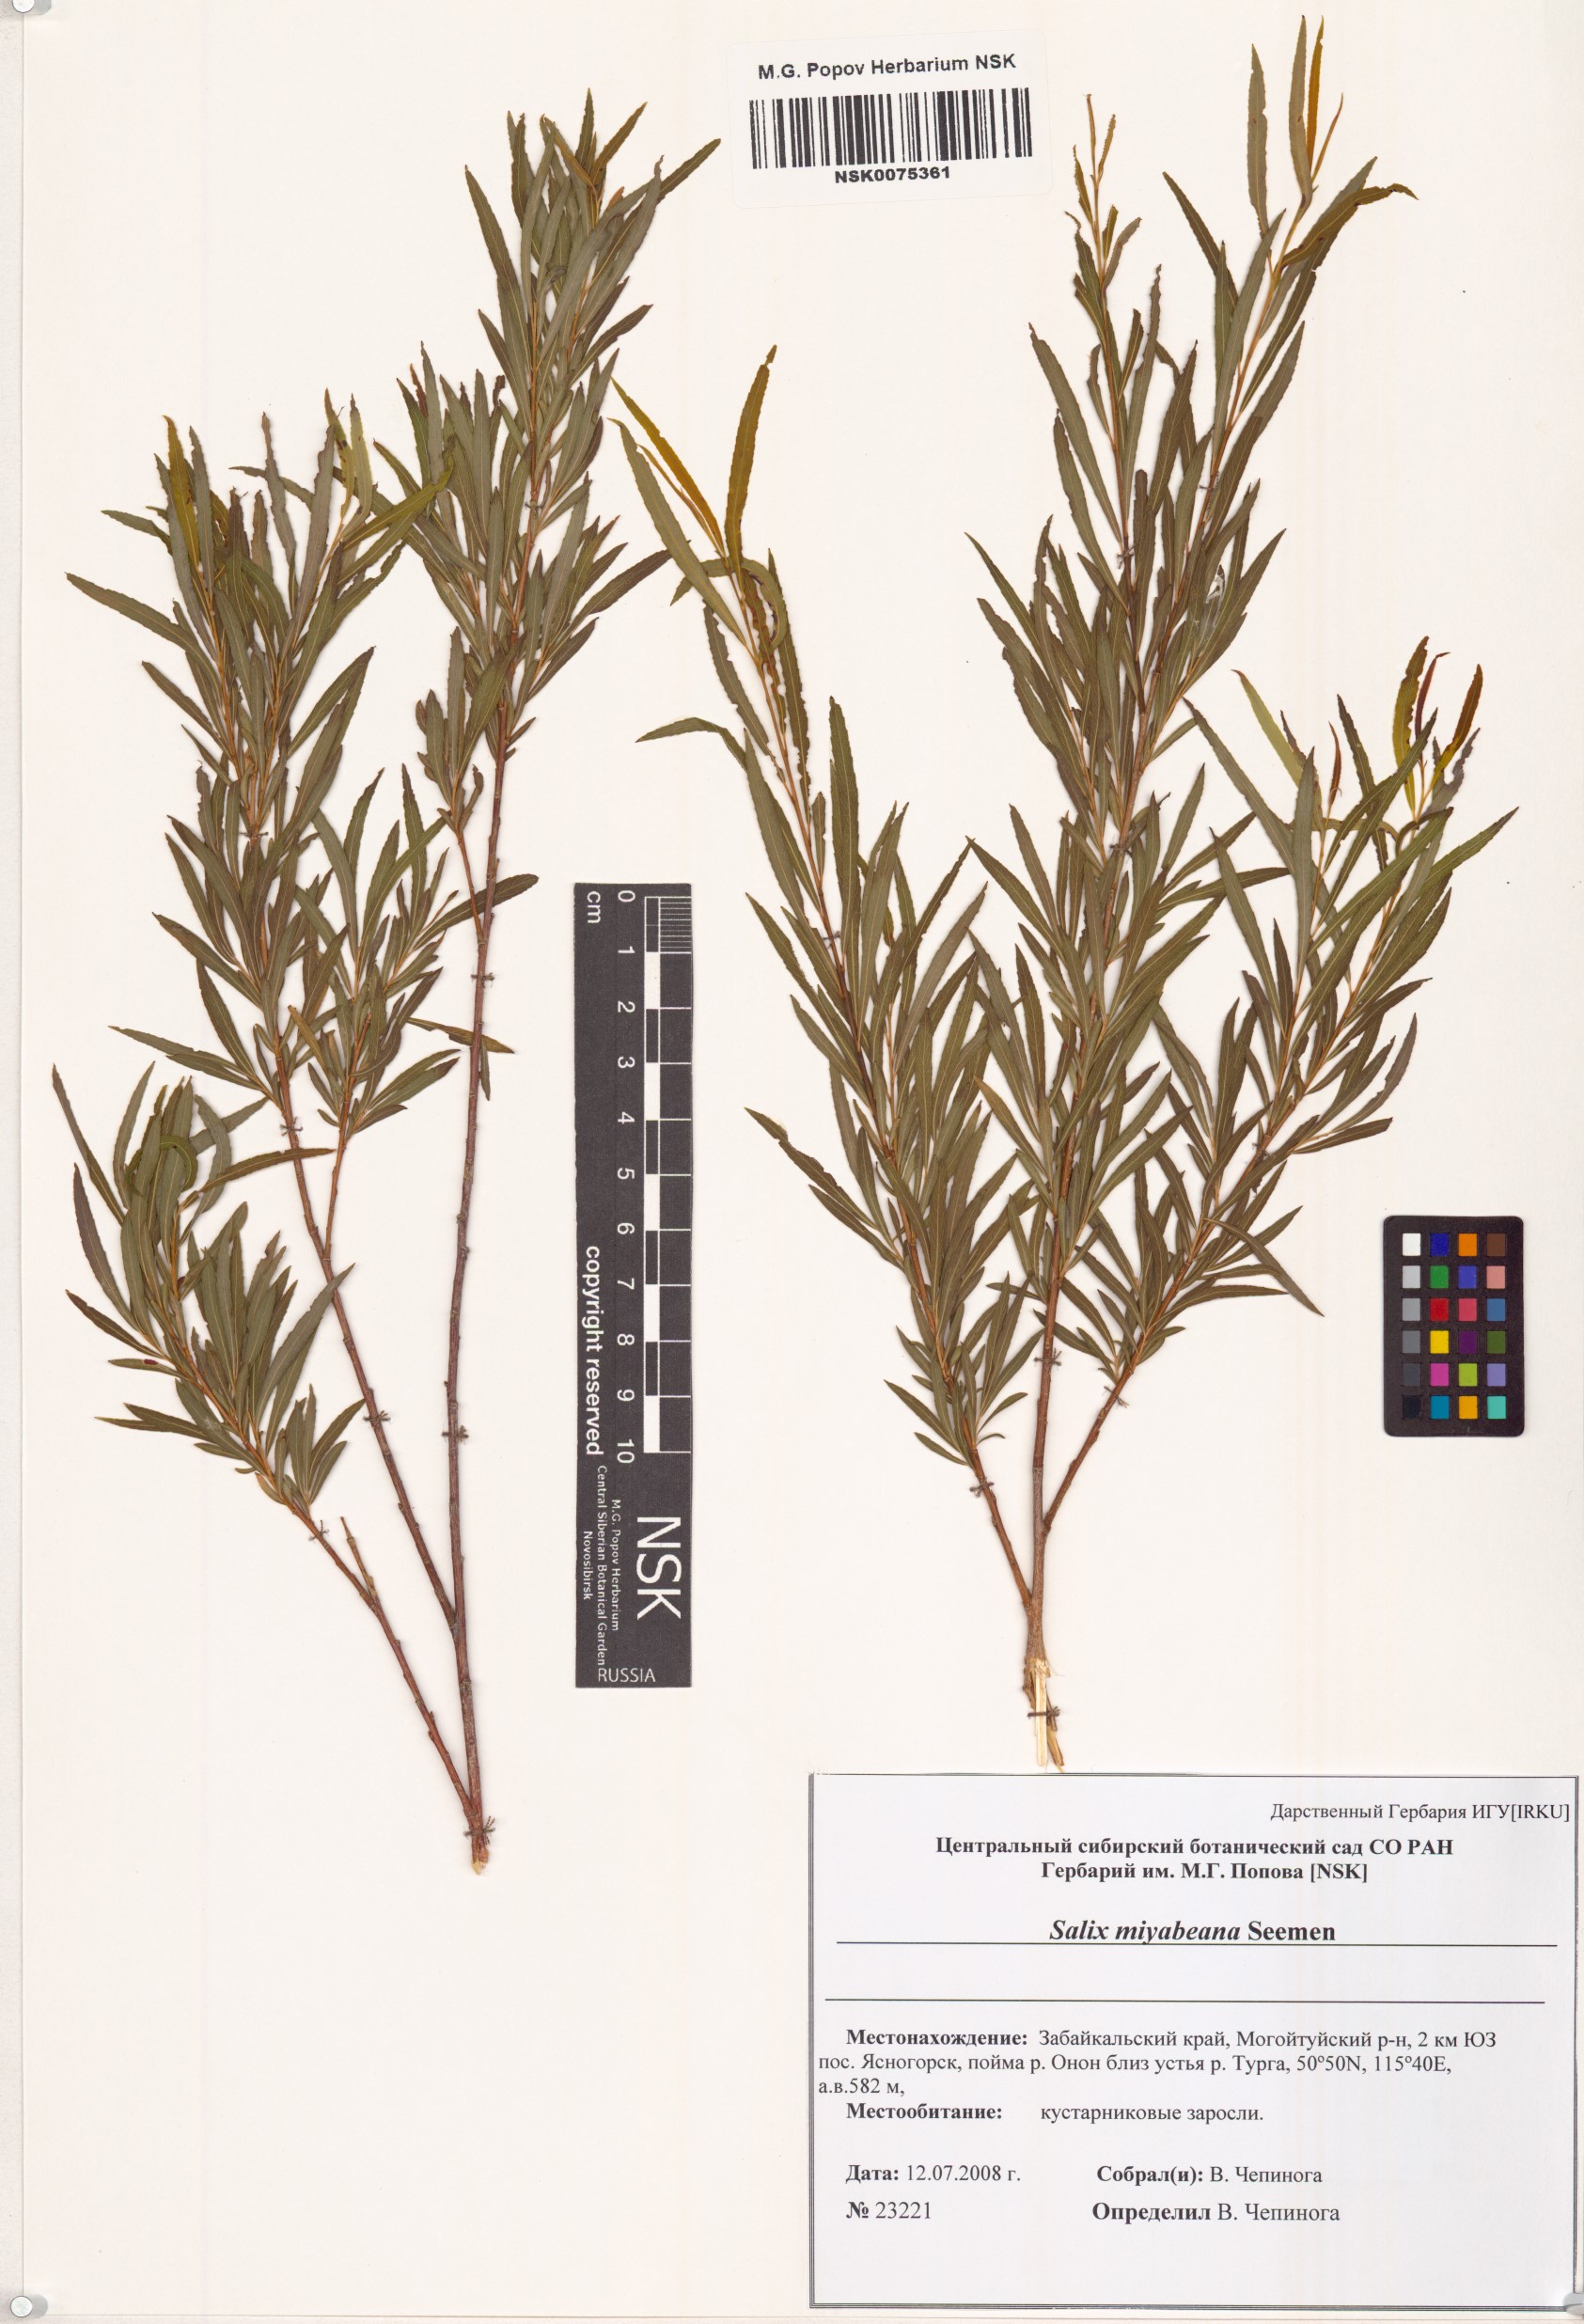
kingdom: Plantae
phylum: Tracheophyta
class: Magnoliopsida
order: Malpighiales
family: Salicaceae
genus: Salix
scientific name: Salix miyabeana
